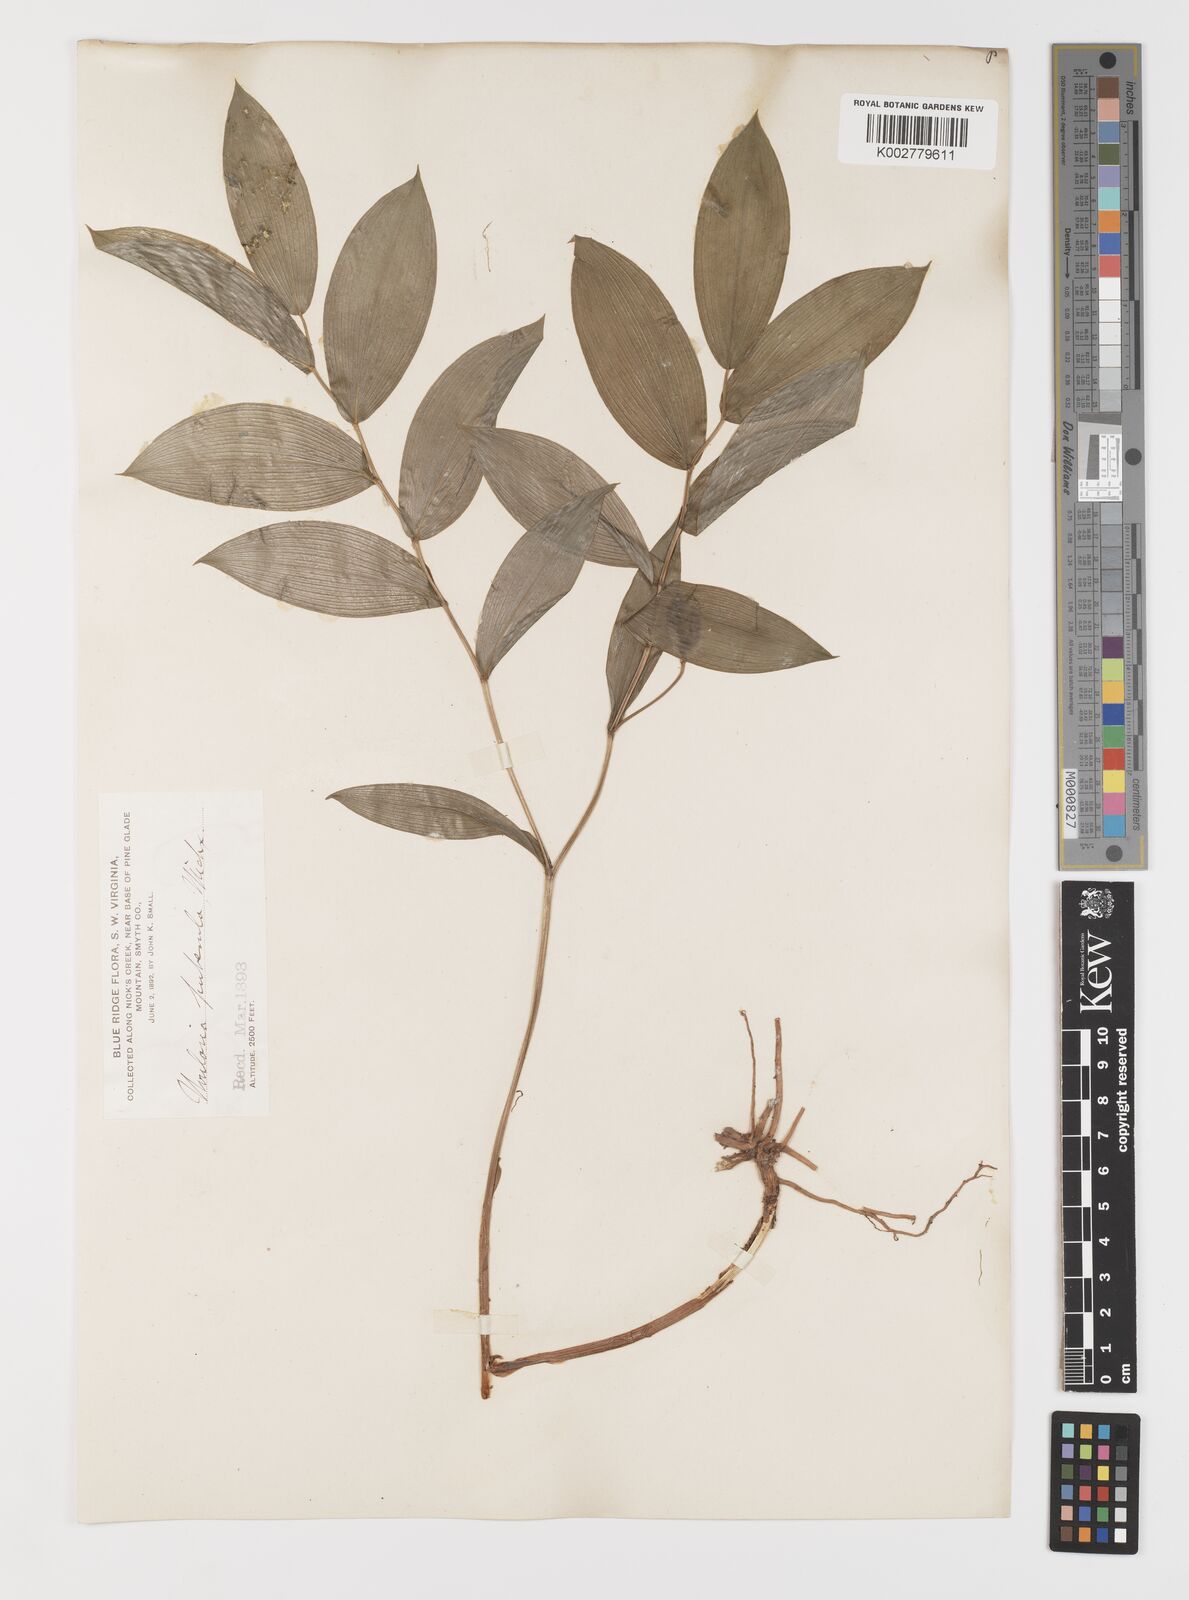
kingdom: Plantae
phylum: Tracheophyta
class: Liliopsida
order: Liliales
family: Colchicaceae
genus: Uvularia
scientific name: Uvularia puberula
